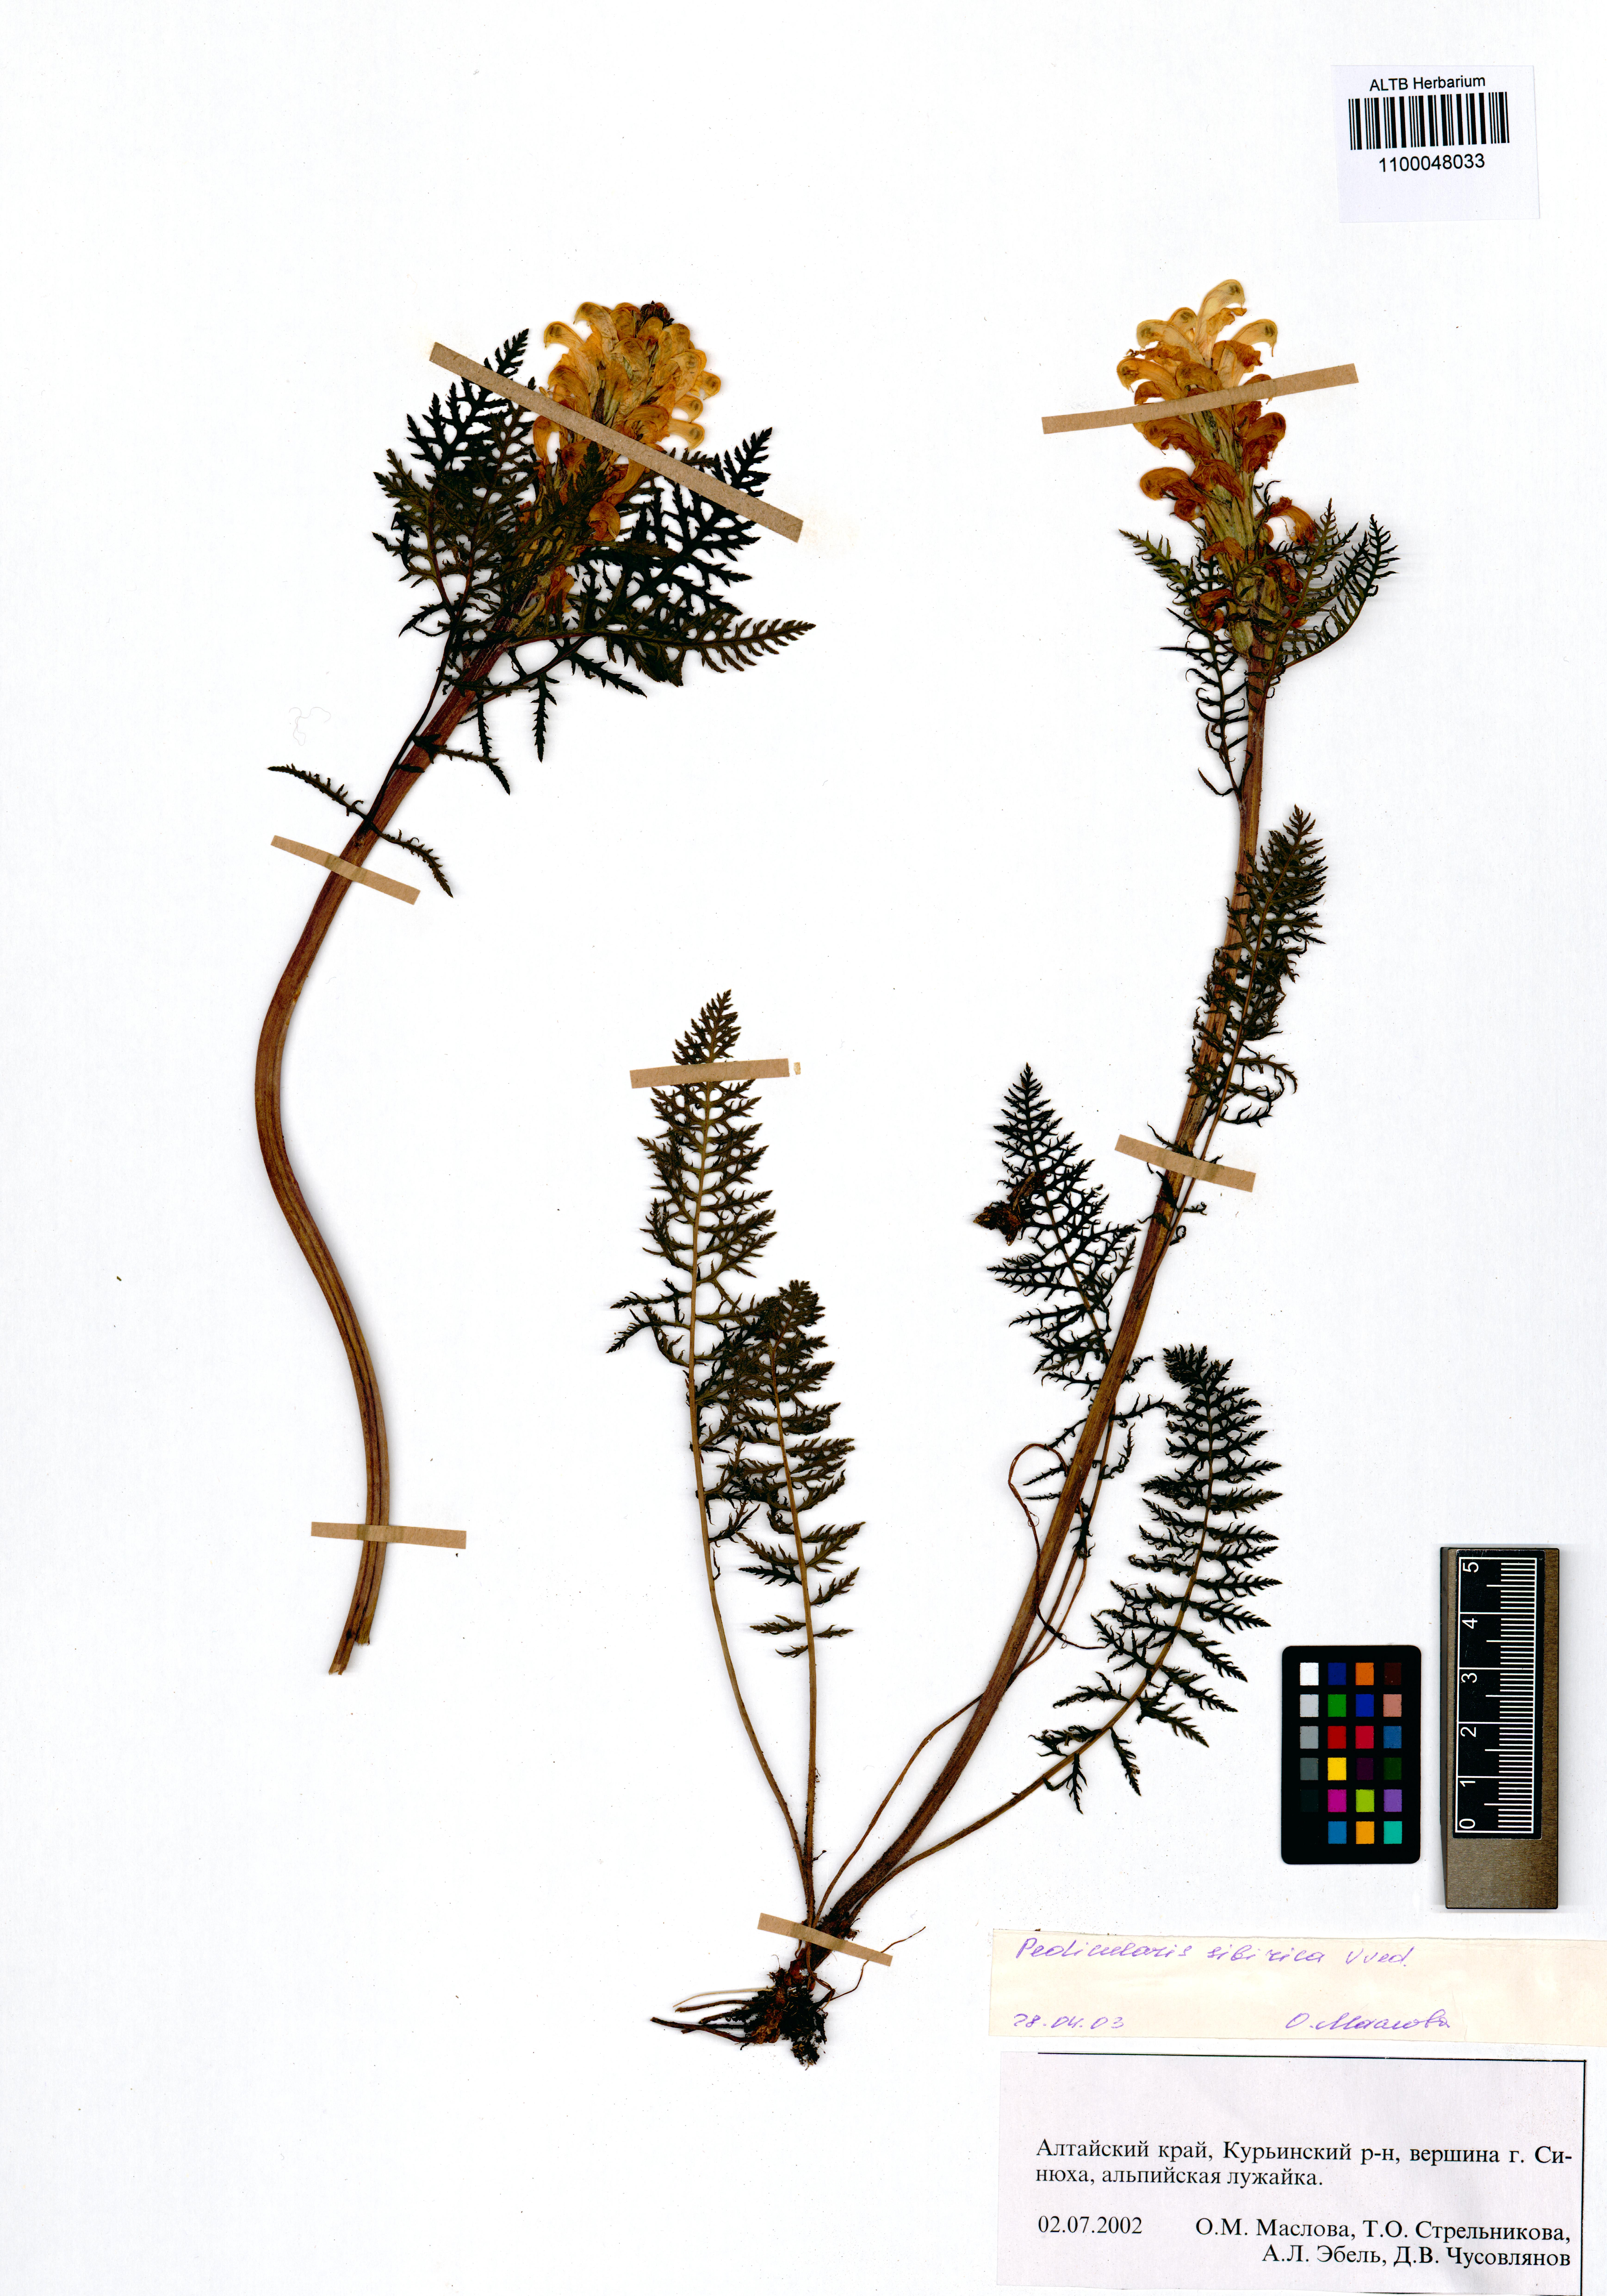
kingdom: Plantae
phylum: Tracheophyta
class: Magnoliopsida
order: Lamiales
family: Orobanchaceae
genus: Pedicularis
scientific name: Pedicularis sibirica
